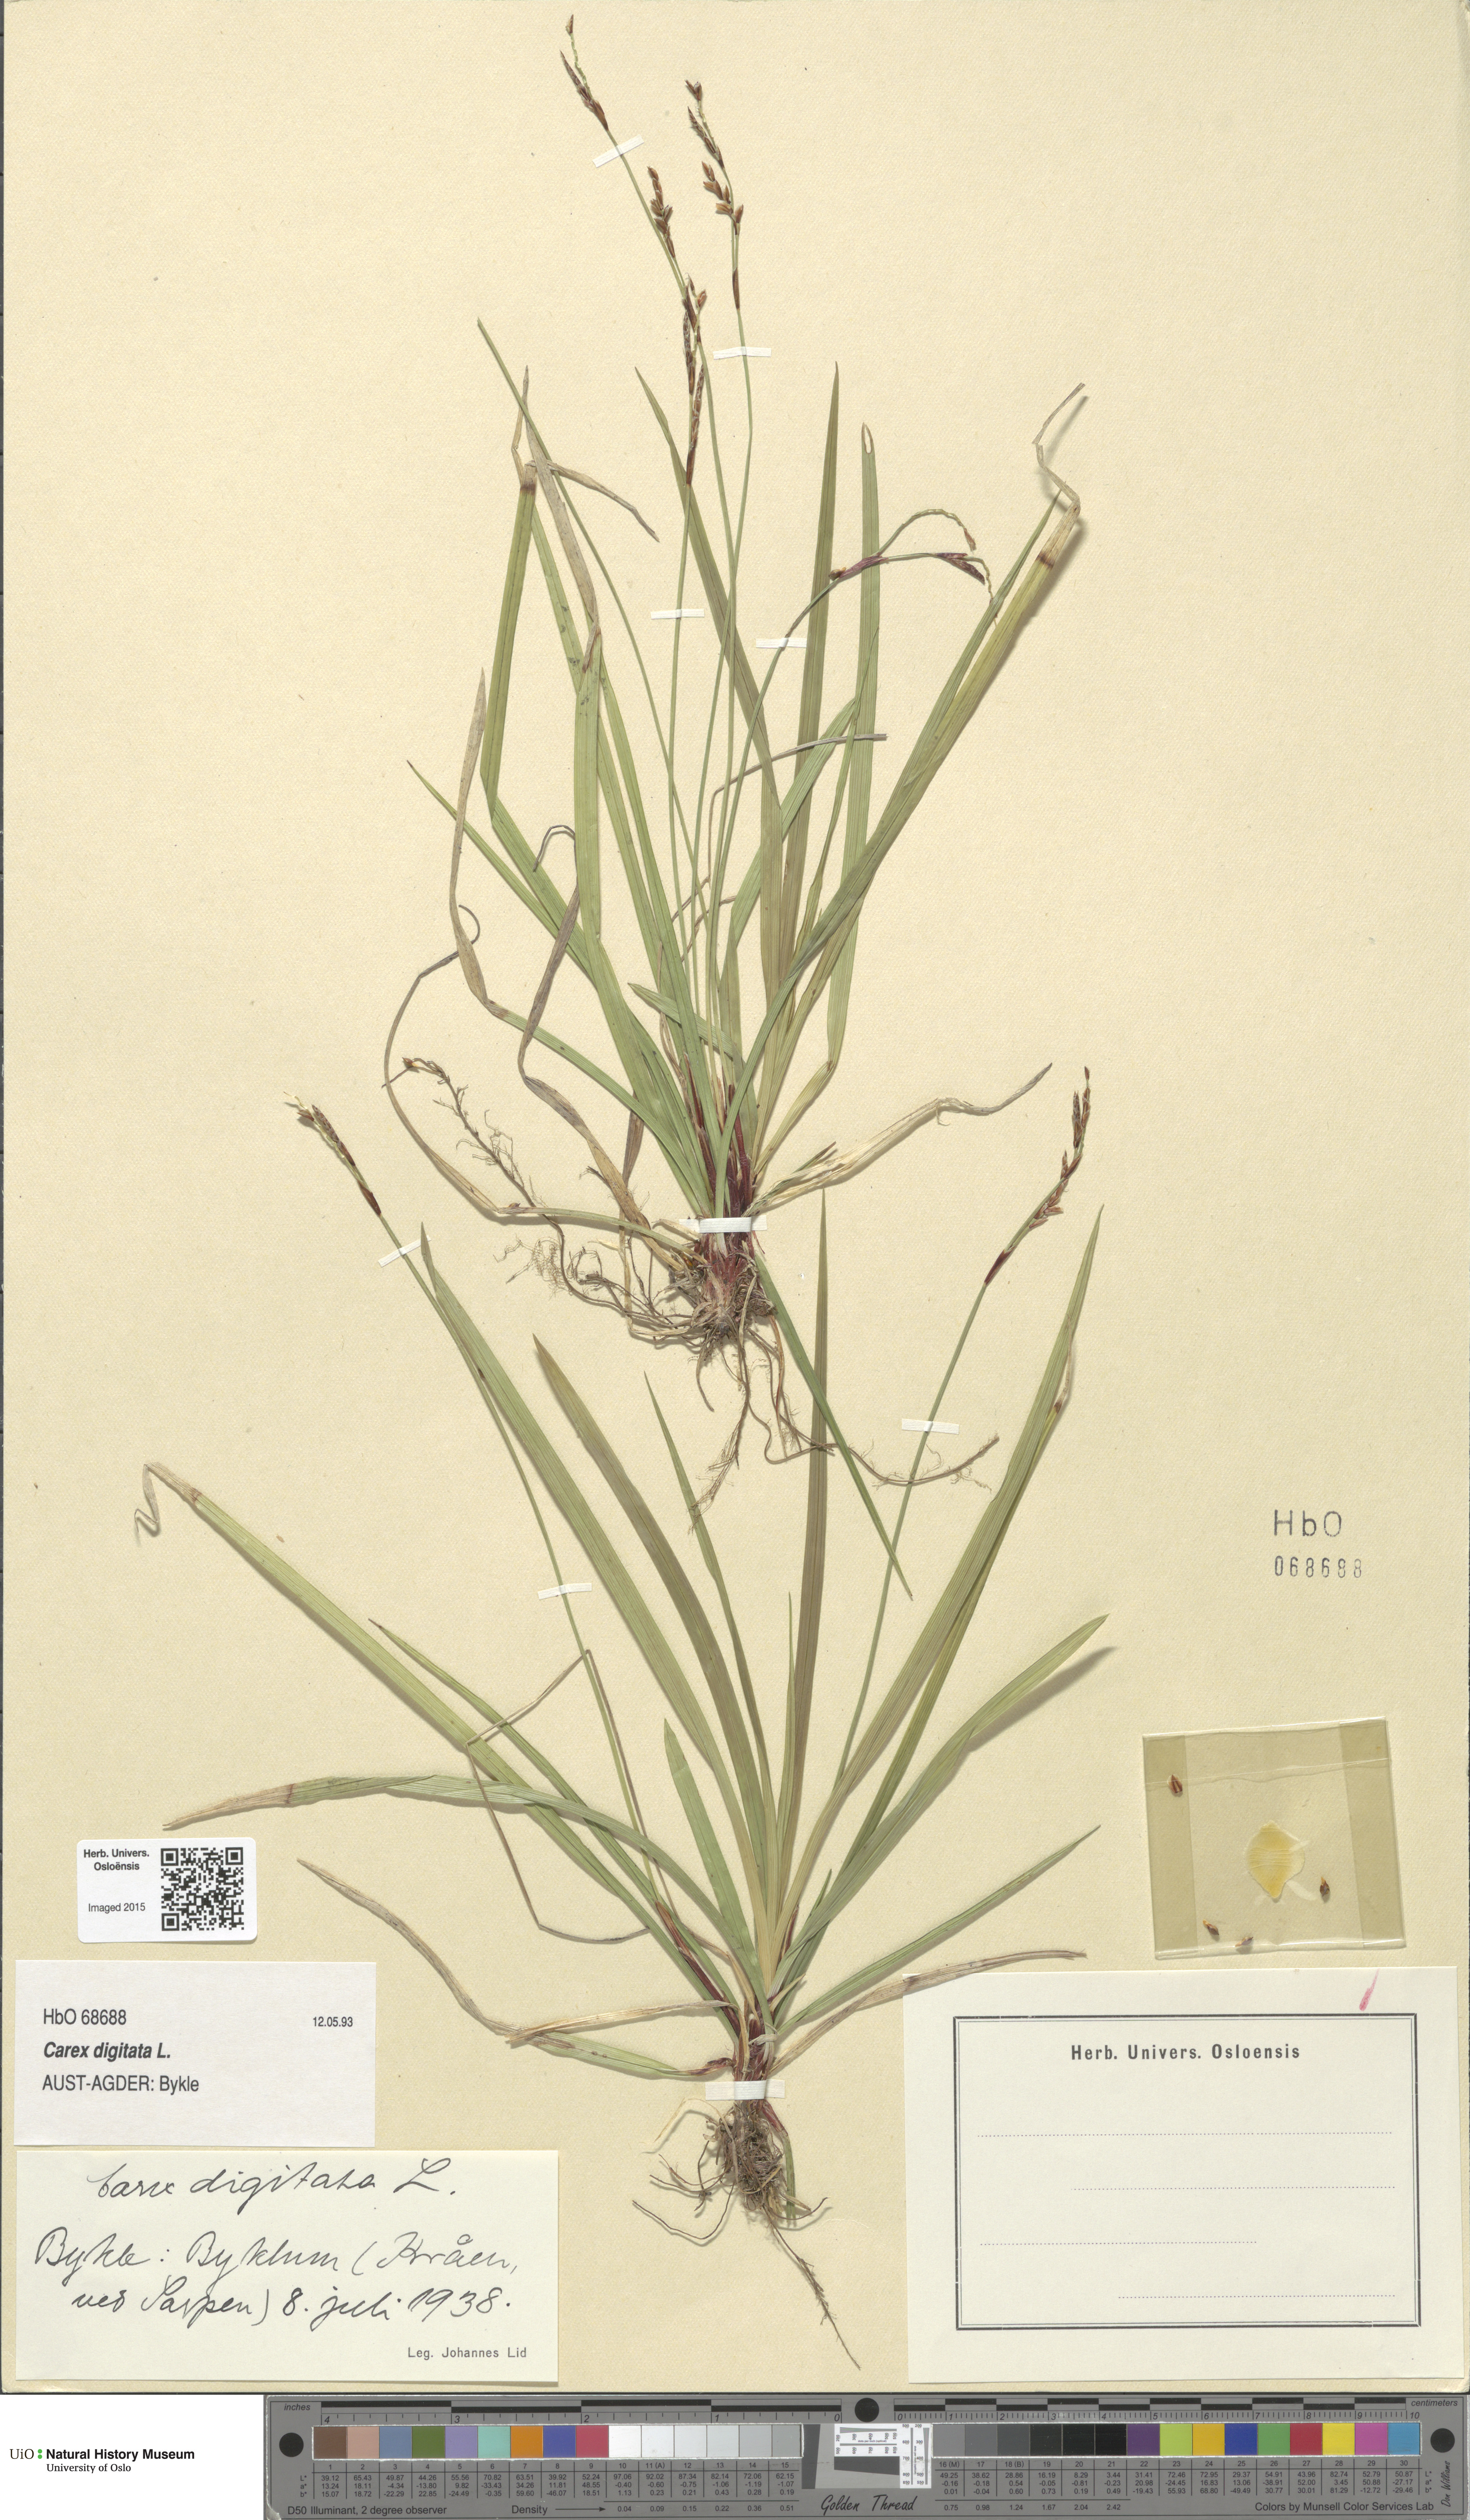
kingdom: Plantae
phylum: Tracheophyta
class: Liliopsida
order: Poales
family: Cyperaceae
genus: Carex
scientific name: Carex digitata
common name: Fingered sedge
